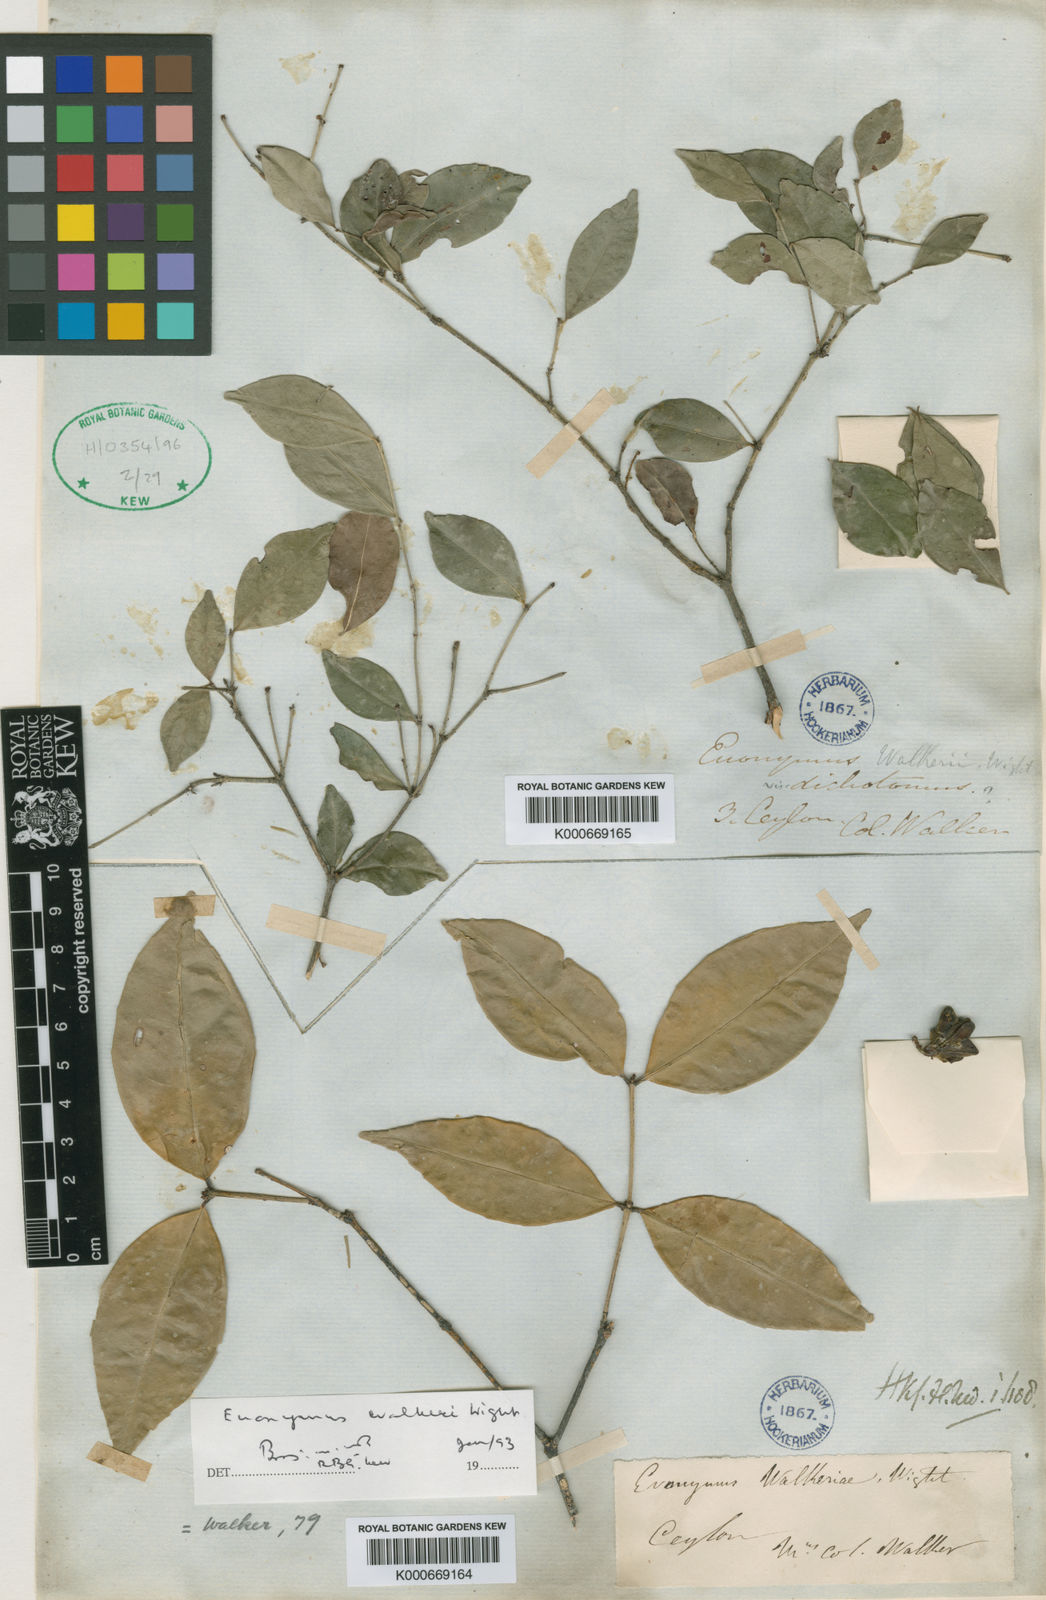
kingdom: Plantae
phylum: Tracheophyta
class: Magnoliopsida
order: Celastrales
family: Celastraceae
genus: Euonymus
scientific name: Euonymus walkeri
